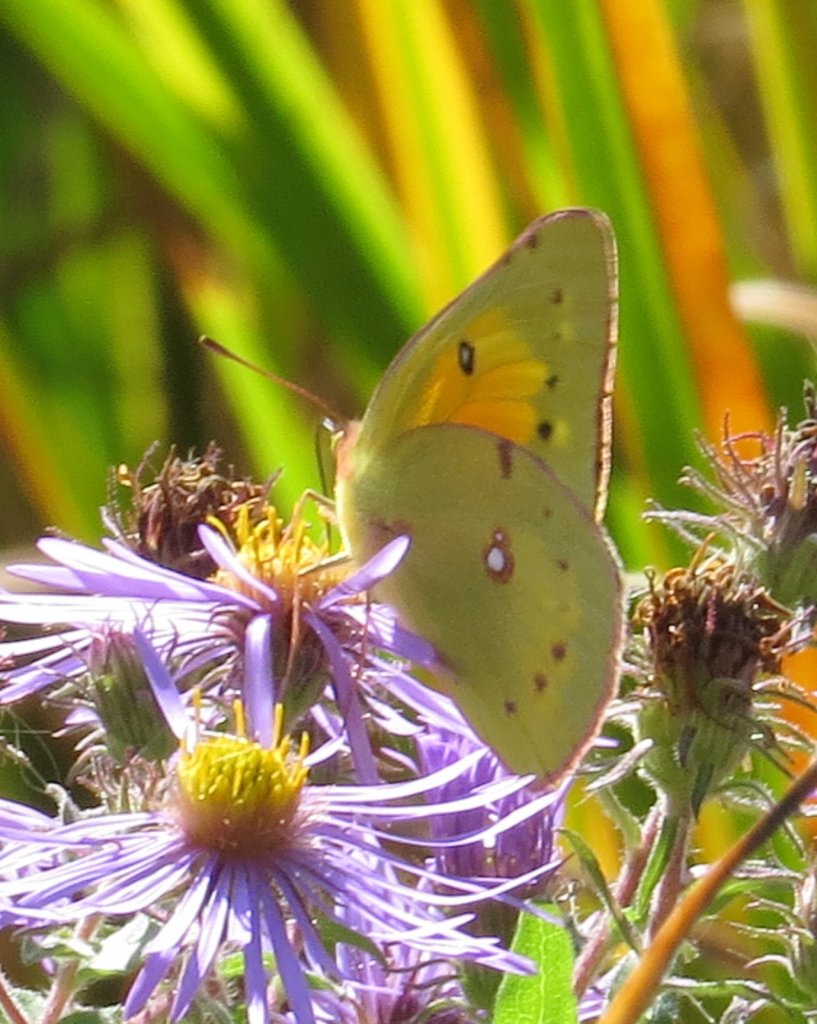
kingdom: Animalia
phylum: Arthropoda
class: Insecta
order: Lepidoptera
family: Pieridae
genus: Colias
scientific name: Colias eurytheme
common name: Orange Sulphur
